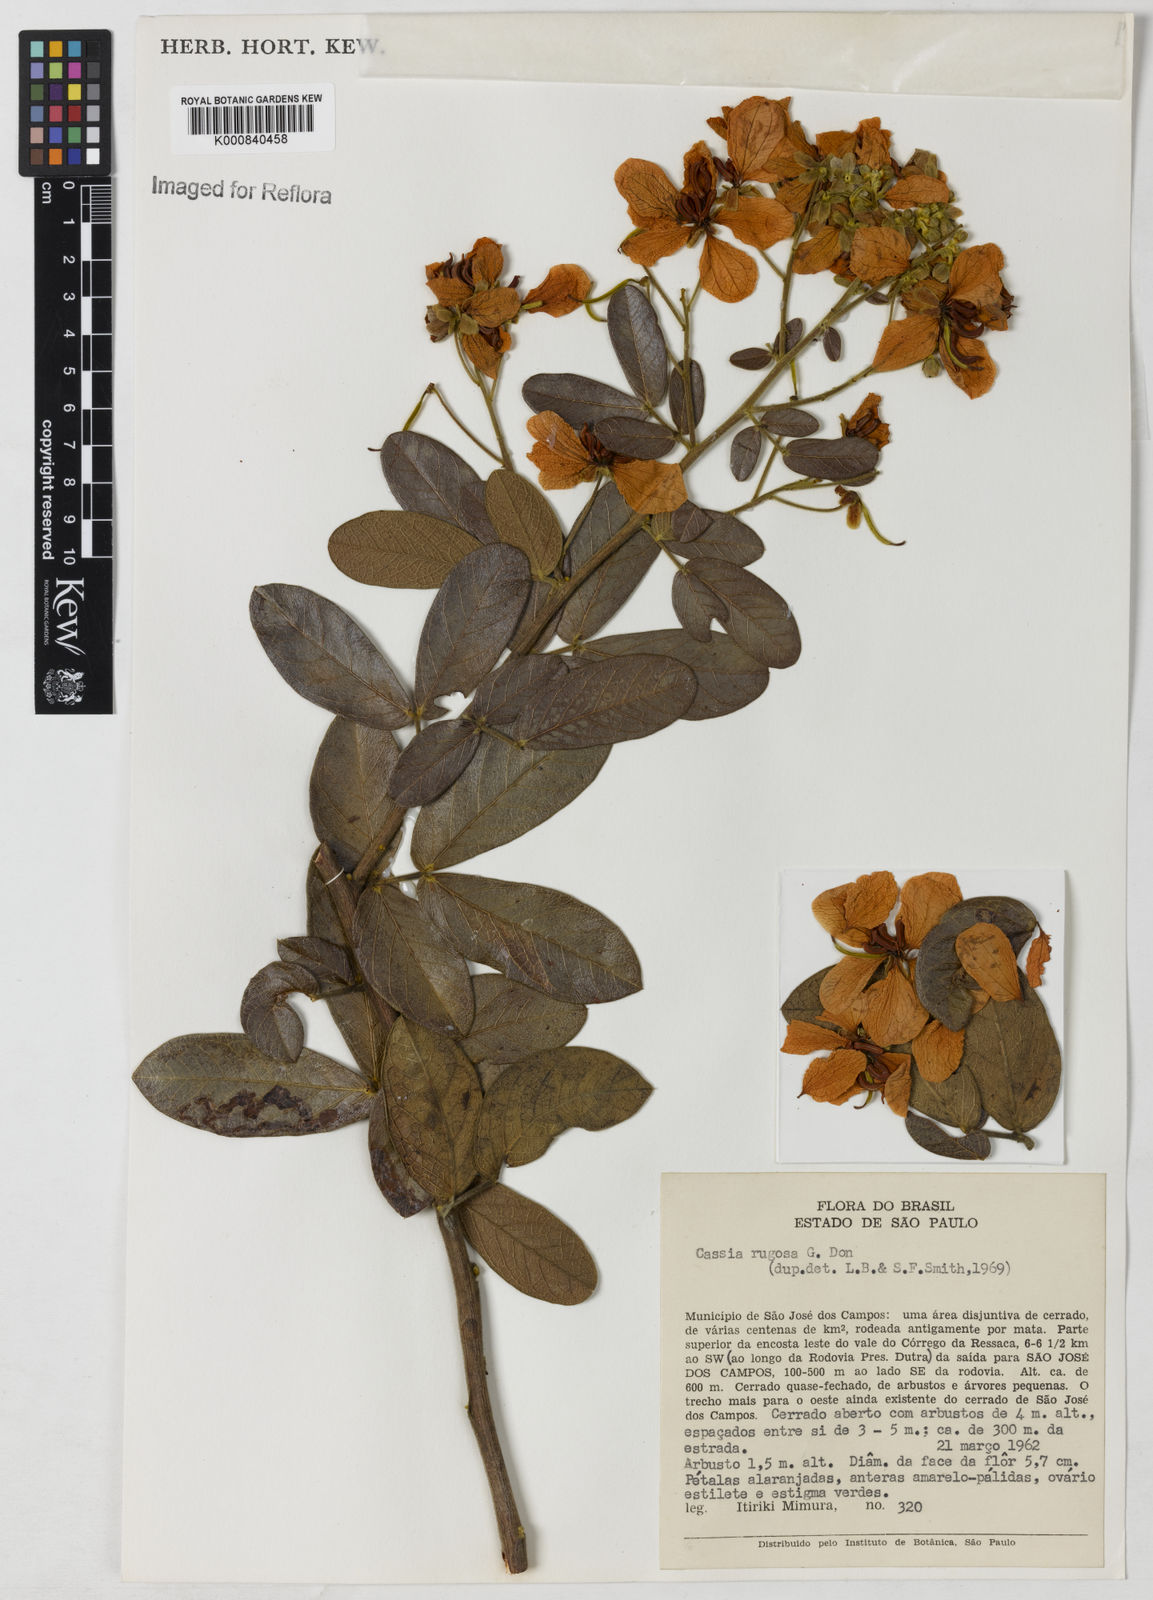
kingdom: Plantae
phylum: Tracheophyta
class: Magnoliopsida
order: Fabales
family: Fabaceae
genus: Senna
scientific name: Senna rugosa
